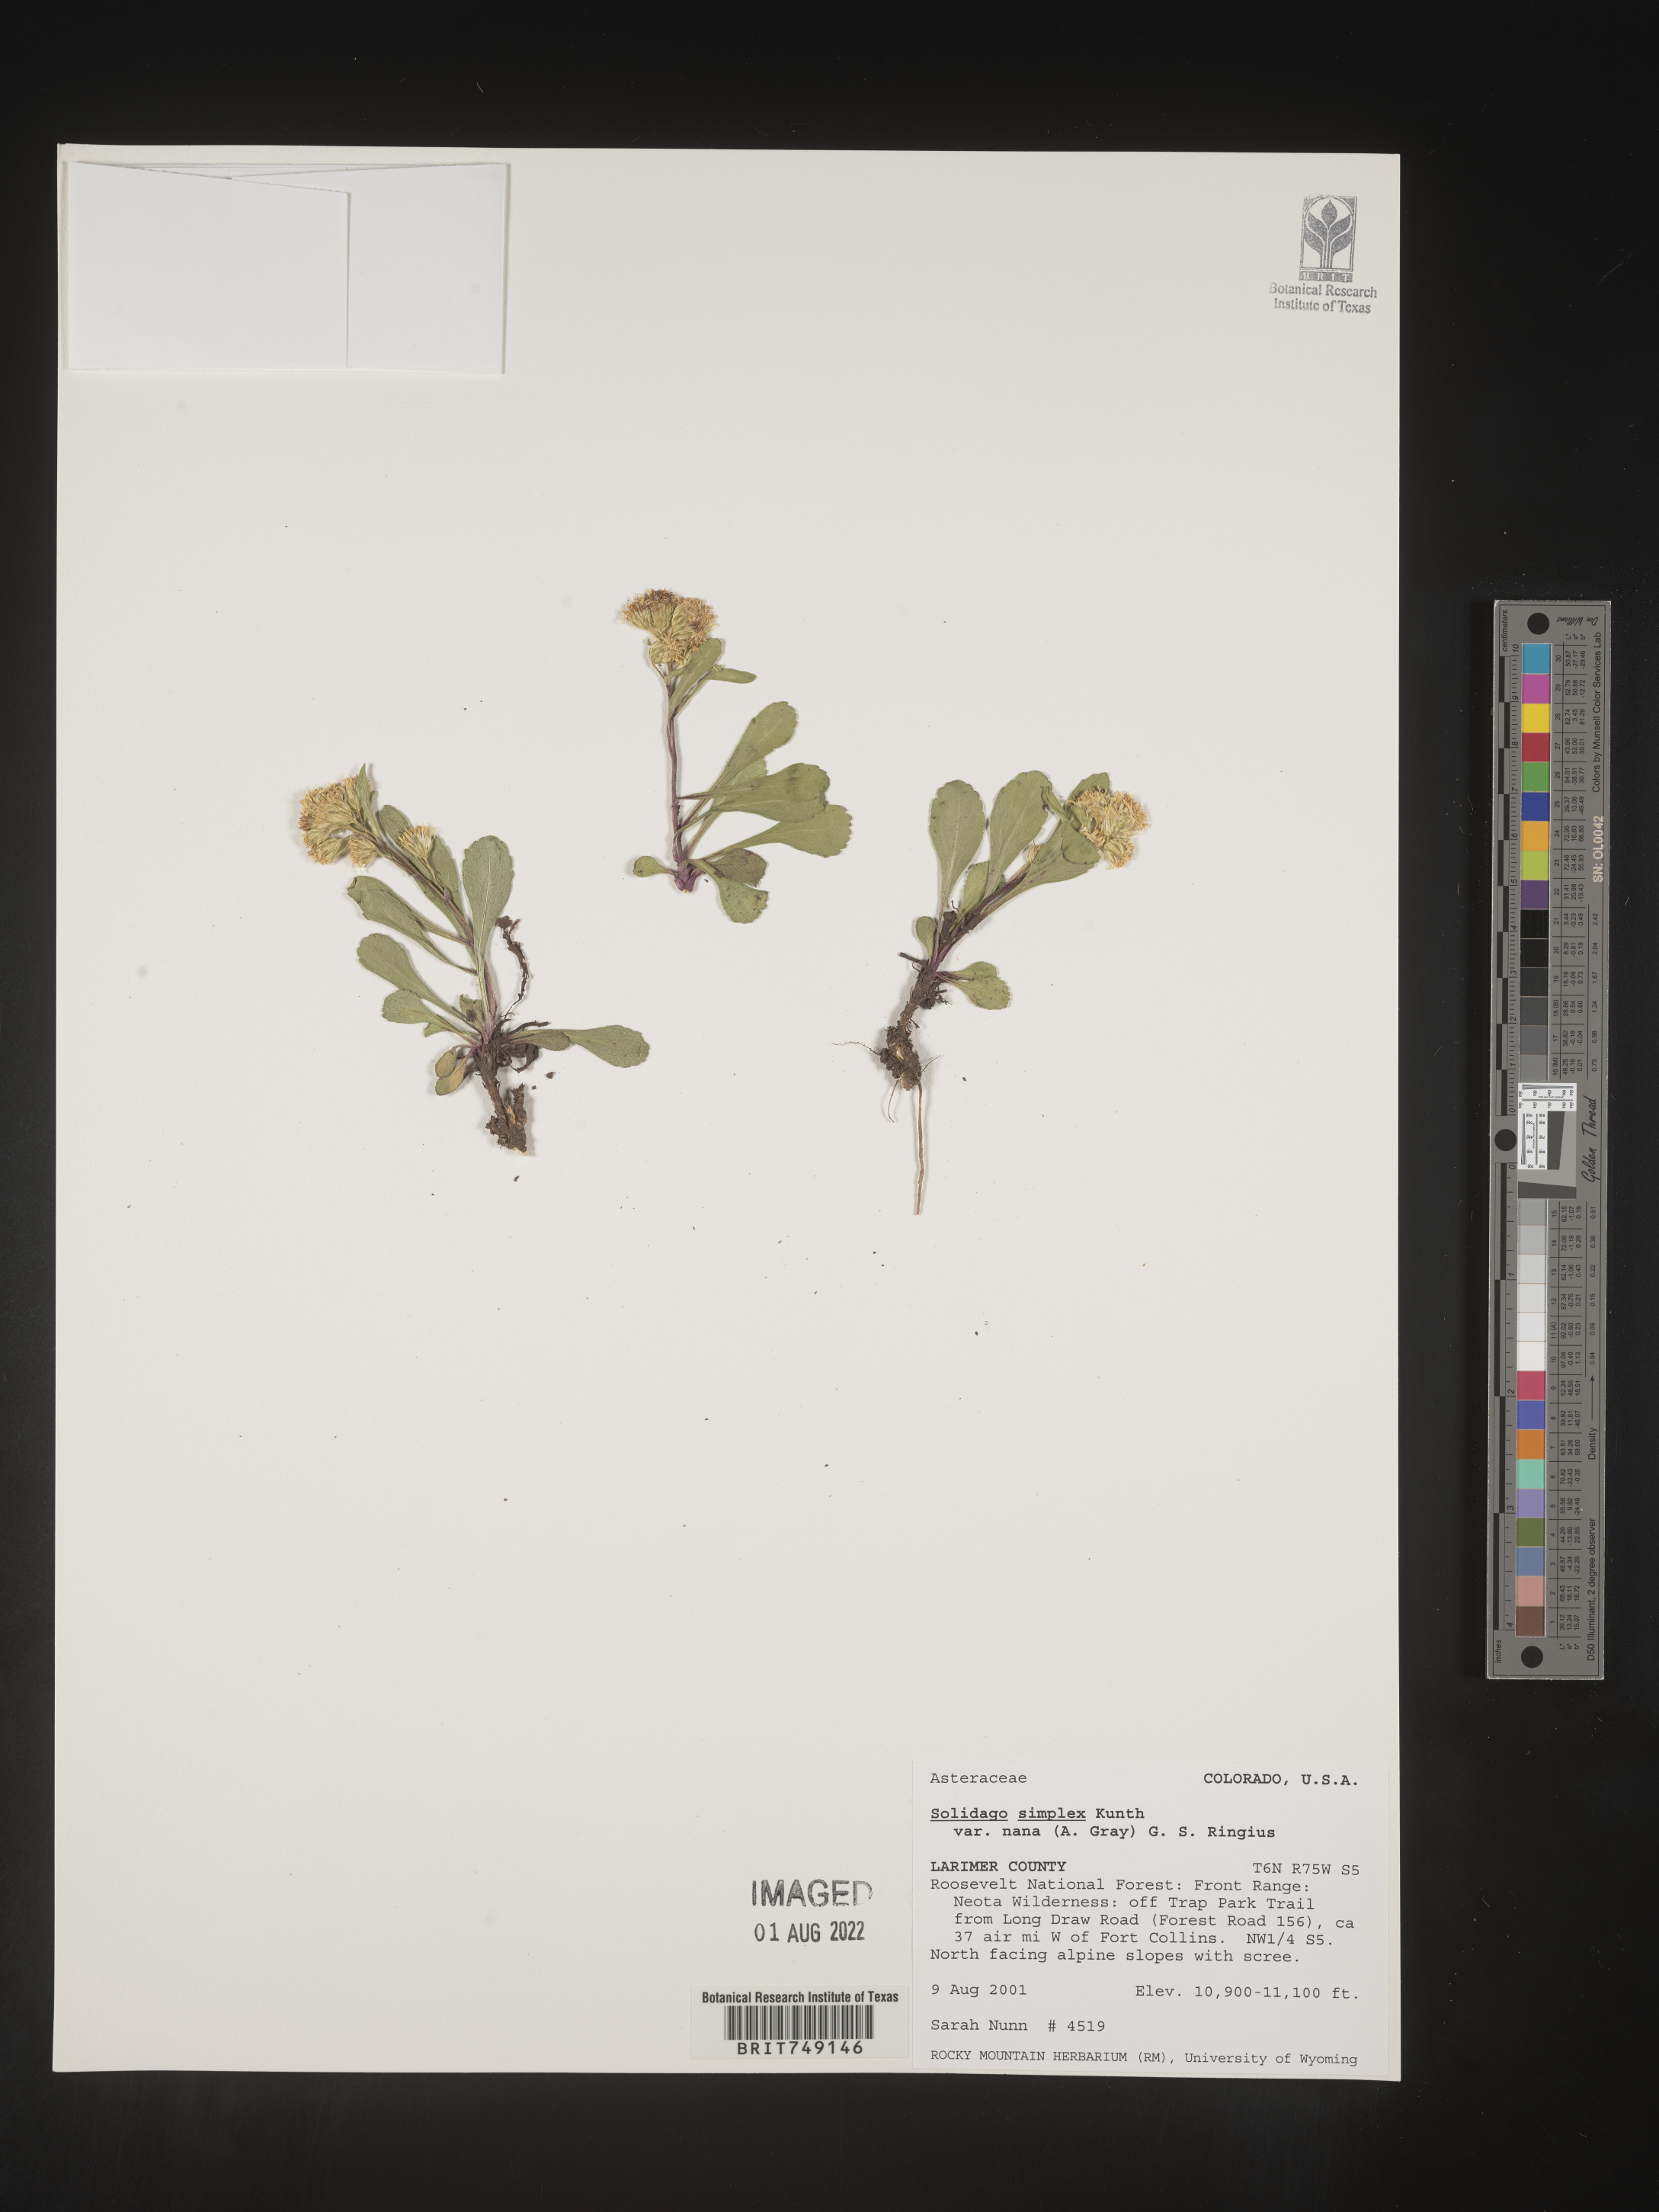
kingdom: Plantae
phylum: Tracheophyta
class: Magnoliopsida
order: Asterales
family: Asteraceae
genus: Solidago
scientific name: Solidago simplex
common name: Sticky goldenrod
